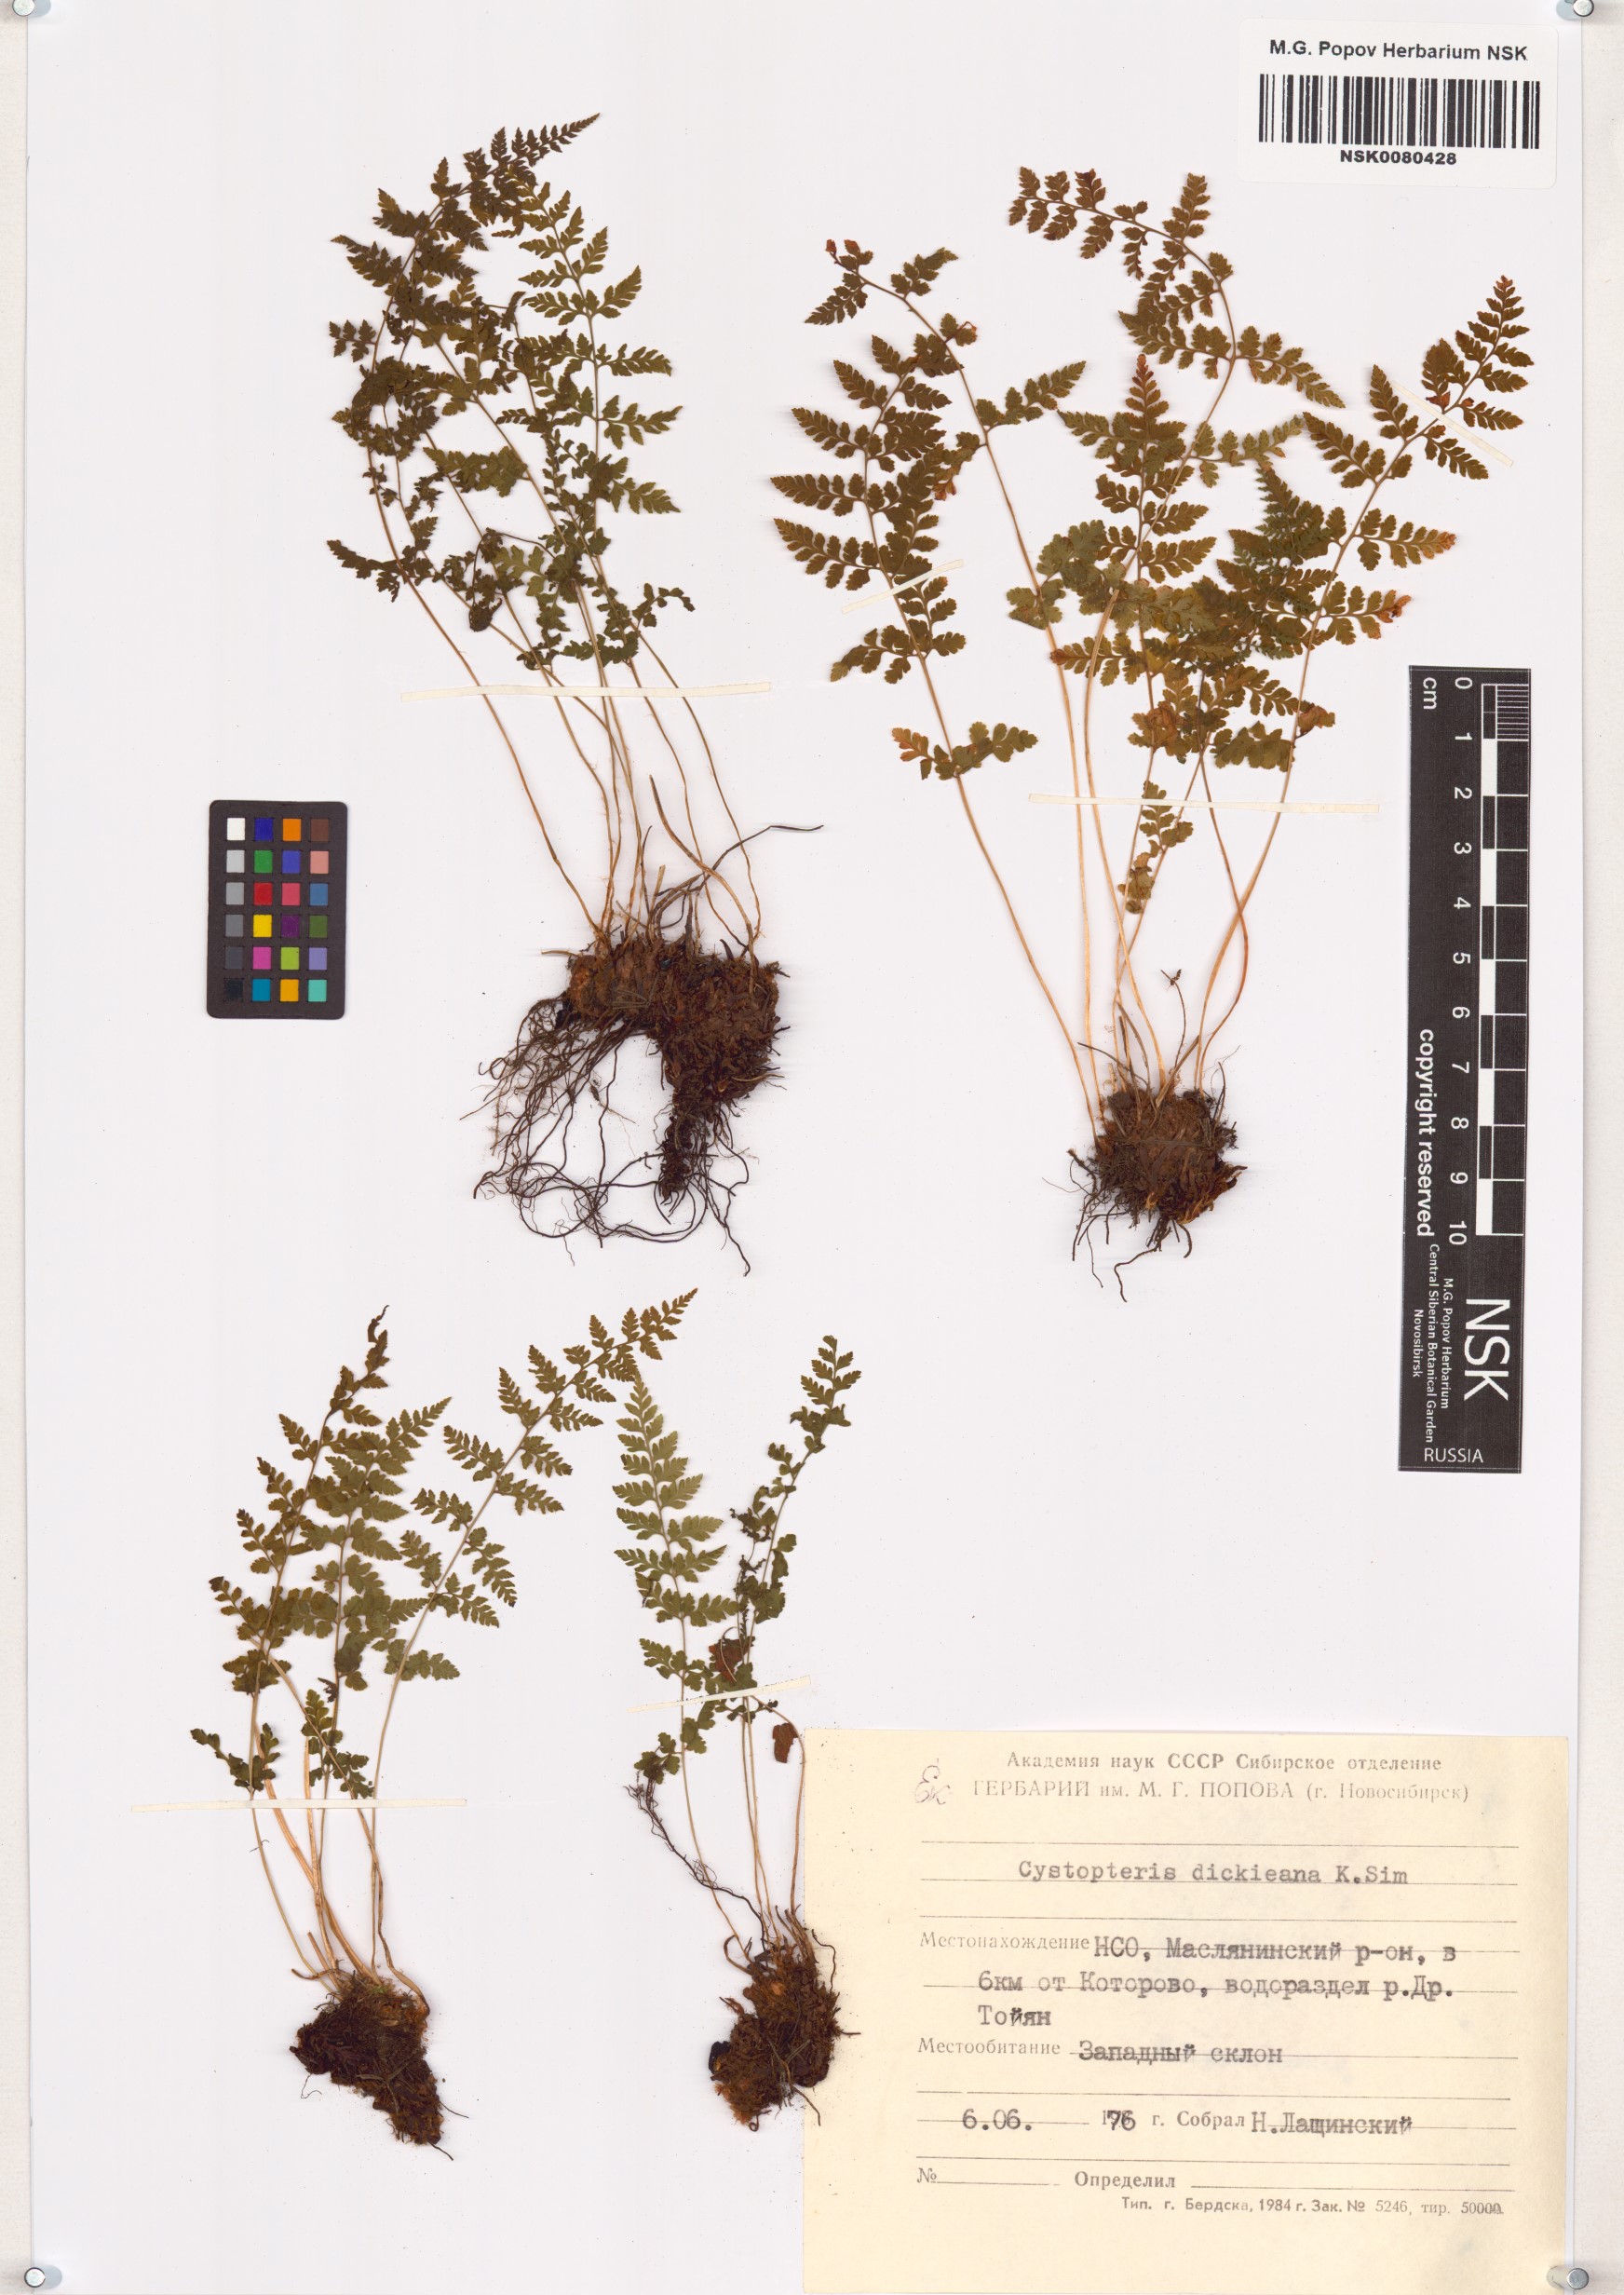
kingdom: Plantae
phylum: Tracheophyta
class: Polypodiopsida
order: Polypodiales
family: Cystopteridaceae
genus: Cystopteris
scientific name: Cystopteris dickieana
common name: Dickie's bladder-fern
